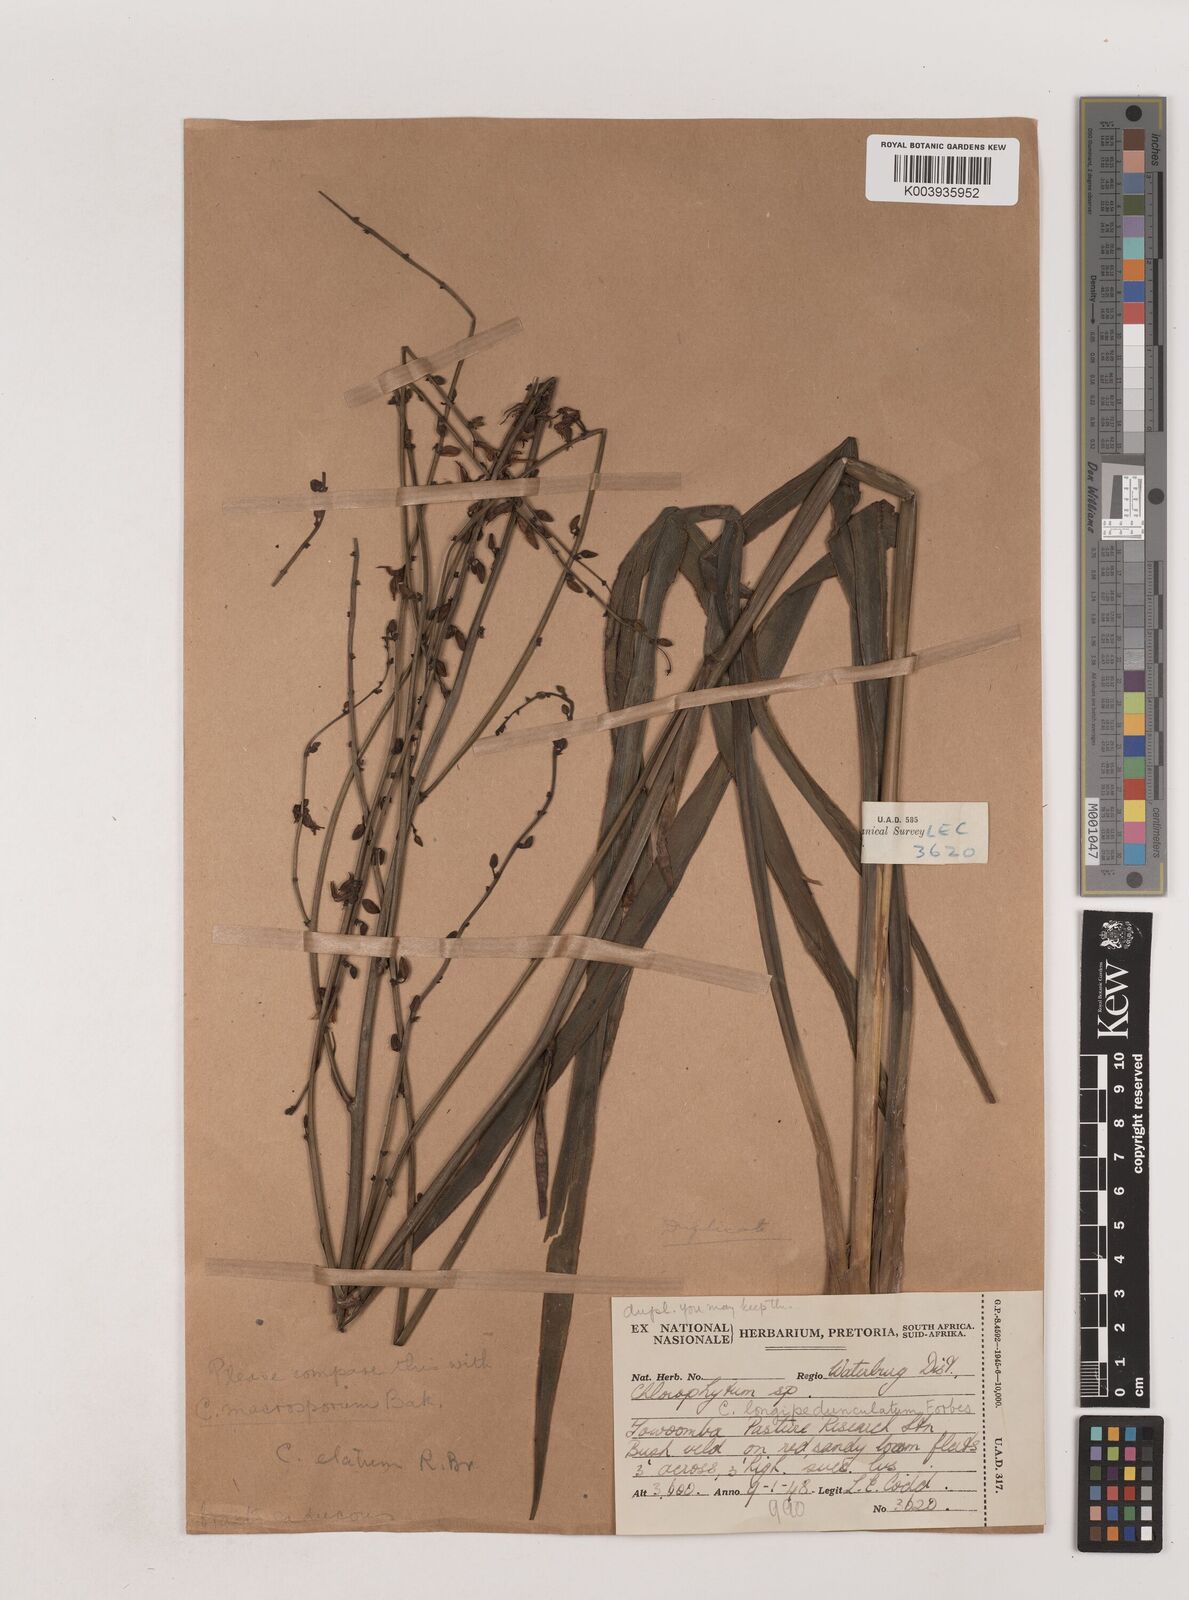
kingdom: Plantae
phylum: Tracheophyta
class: Liliopsida
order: Asparagales
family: Asparagaceae
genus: Chlorophytum
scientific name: Chlorophytum aridum
